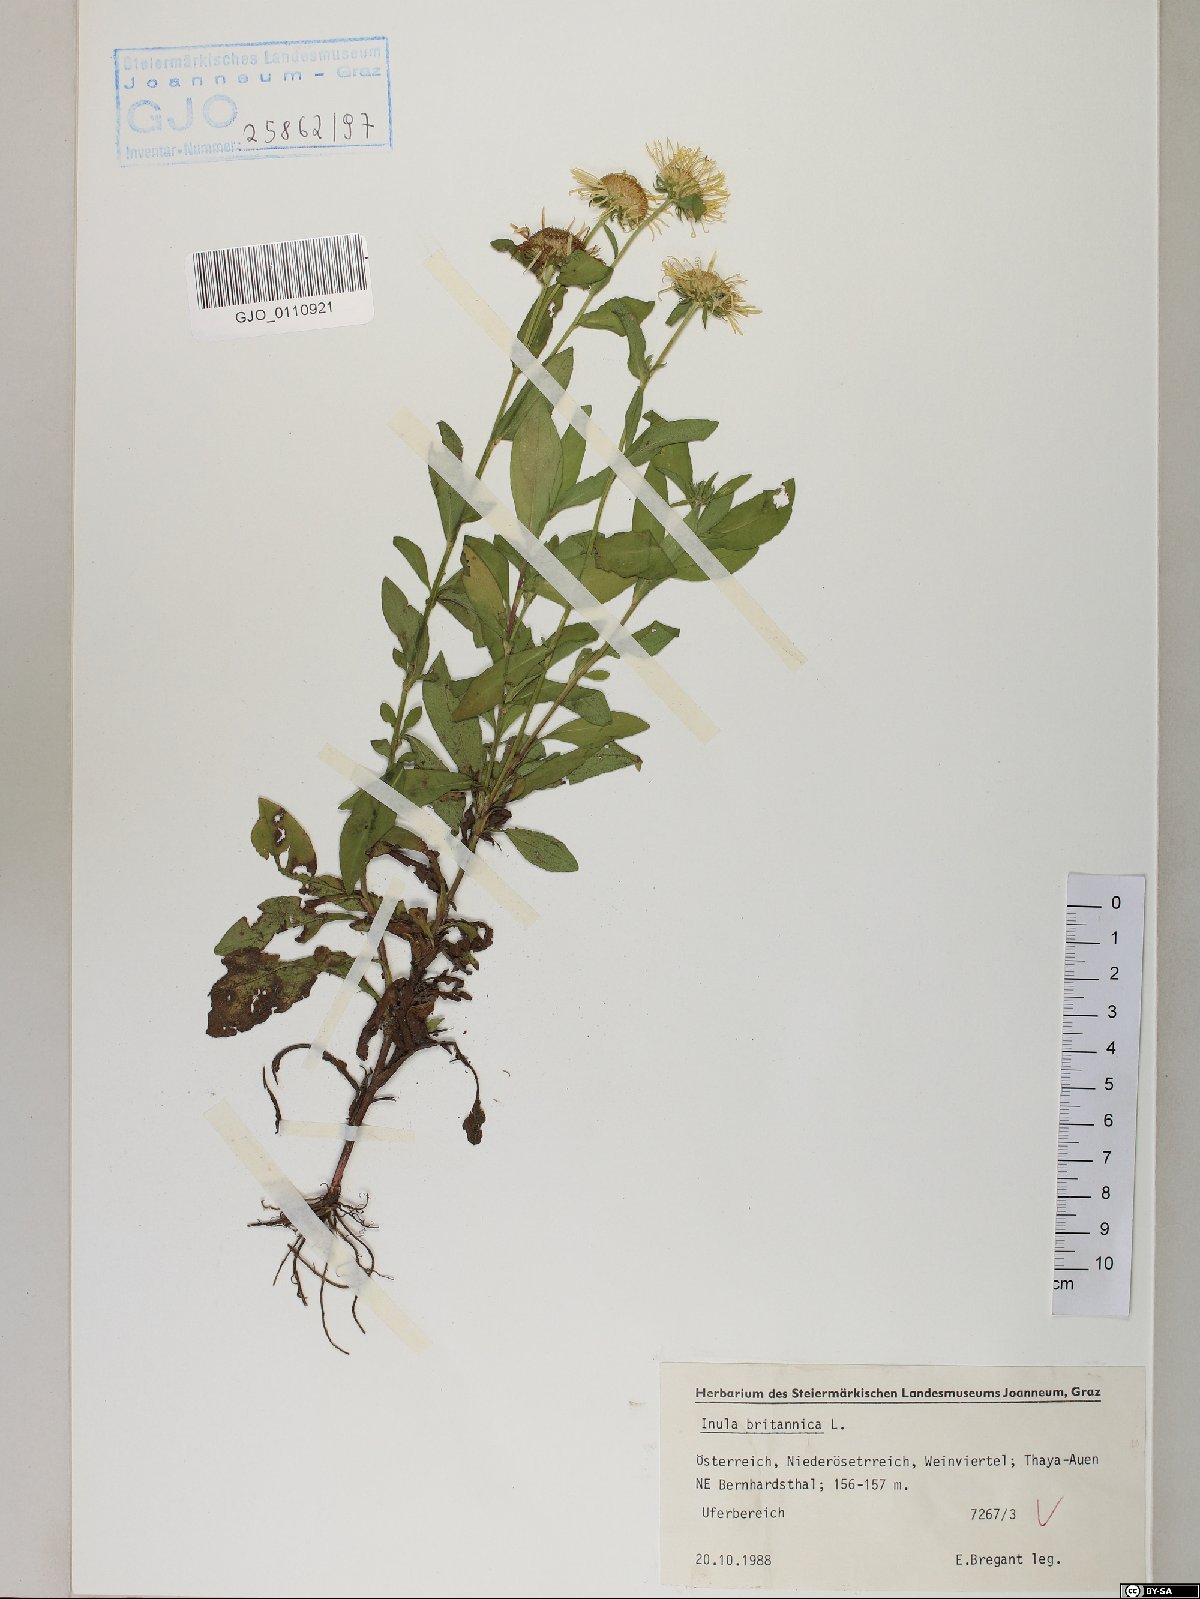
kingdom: Plantae
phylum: Tracheophyta
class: Magnoliopsida
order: Asterales
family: Asteraceae
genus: Pentanema
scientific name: Pentanema britannicum
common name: British elecampane
